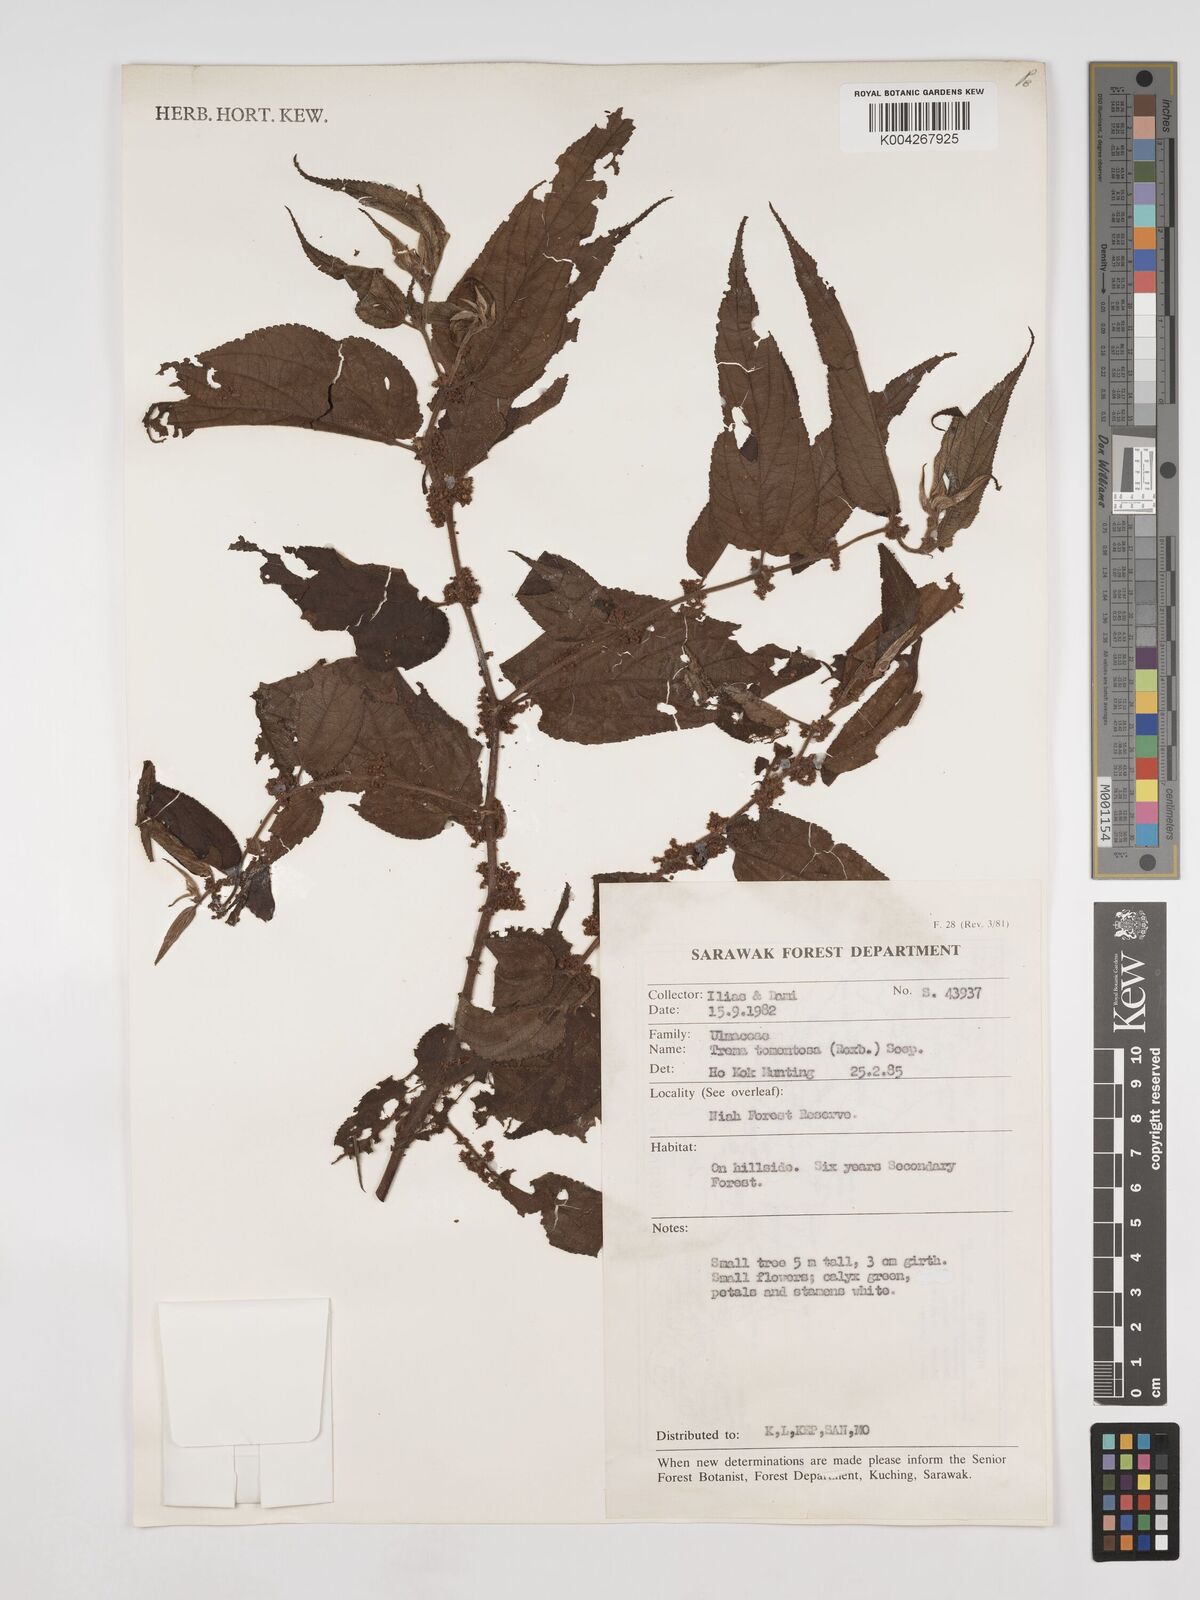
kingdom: Plantae
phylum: Tracheophyta
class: Magnoliopsida
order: Rosales
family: Cannabaceae
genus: Trema
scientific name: Trema tomentosum
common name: Peach-leaf-poisonbush
